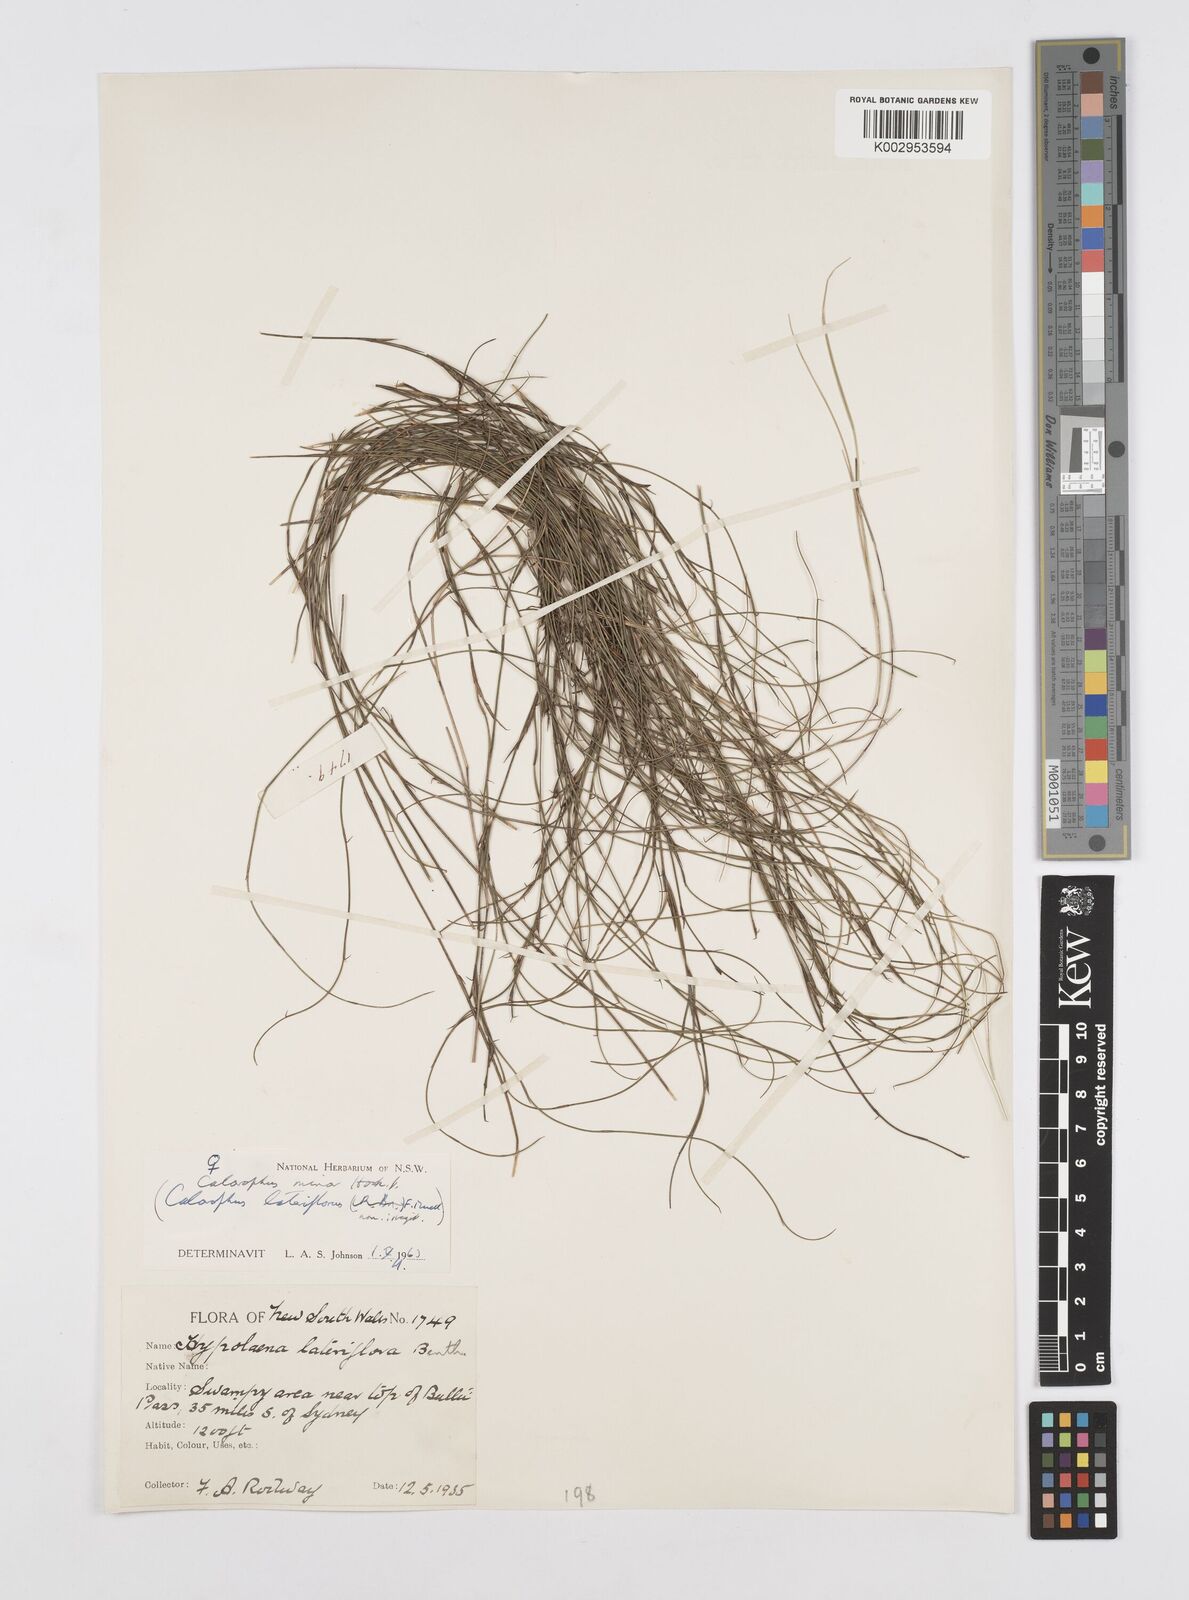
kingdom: Plantae
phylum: Tracheophyta
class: Liliopsida
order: Poales
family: Restionaceae
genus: Empodisma
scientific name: Empodisma minus
